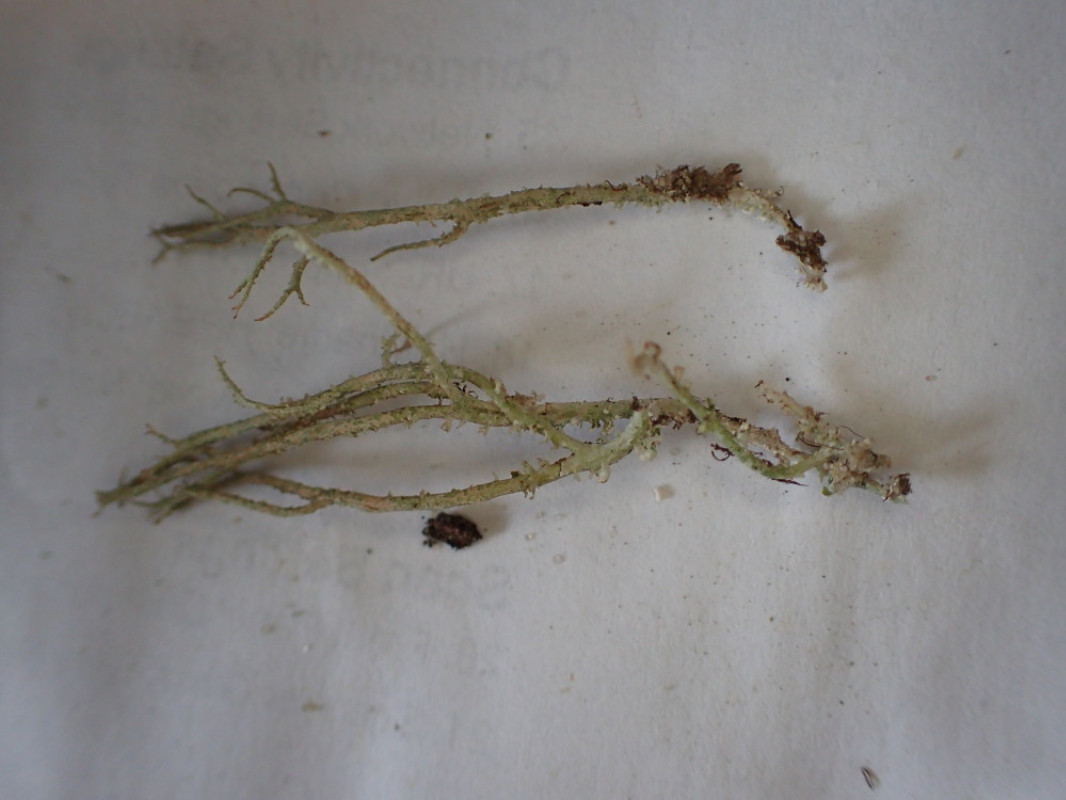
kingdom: Fungi
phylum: Ascomycota
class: Lecanoromycetes
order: Lecanorales
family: Cladoniaceae
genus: Cladonia
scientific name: Cladonia scabriuscula
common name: ru bægerlav
